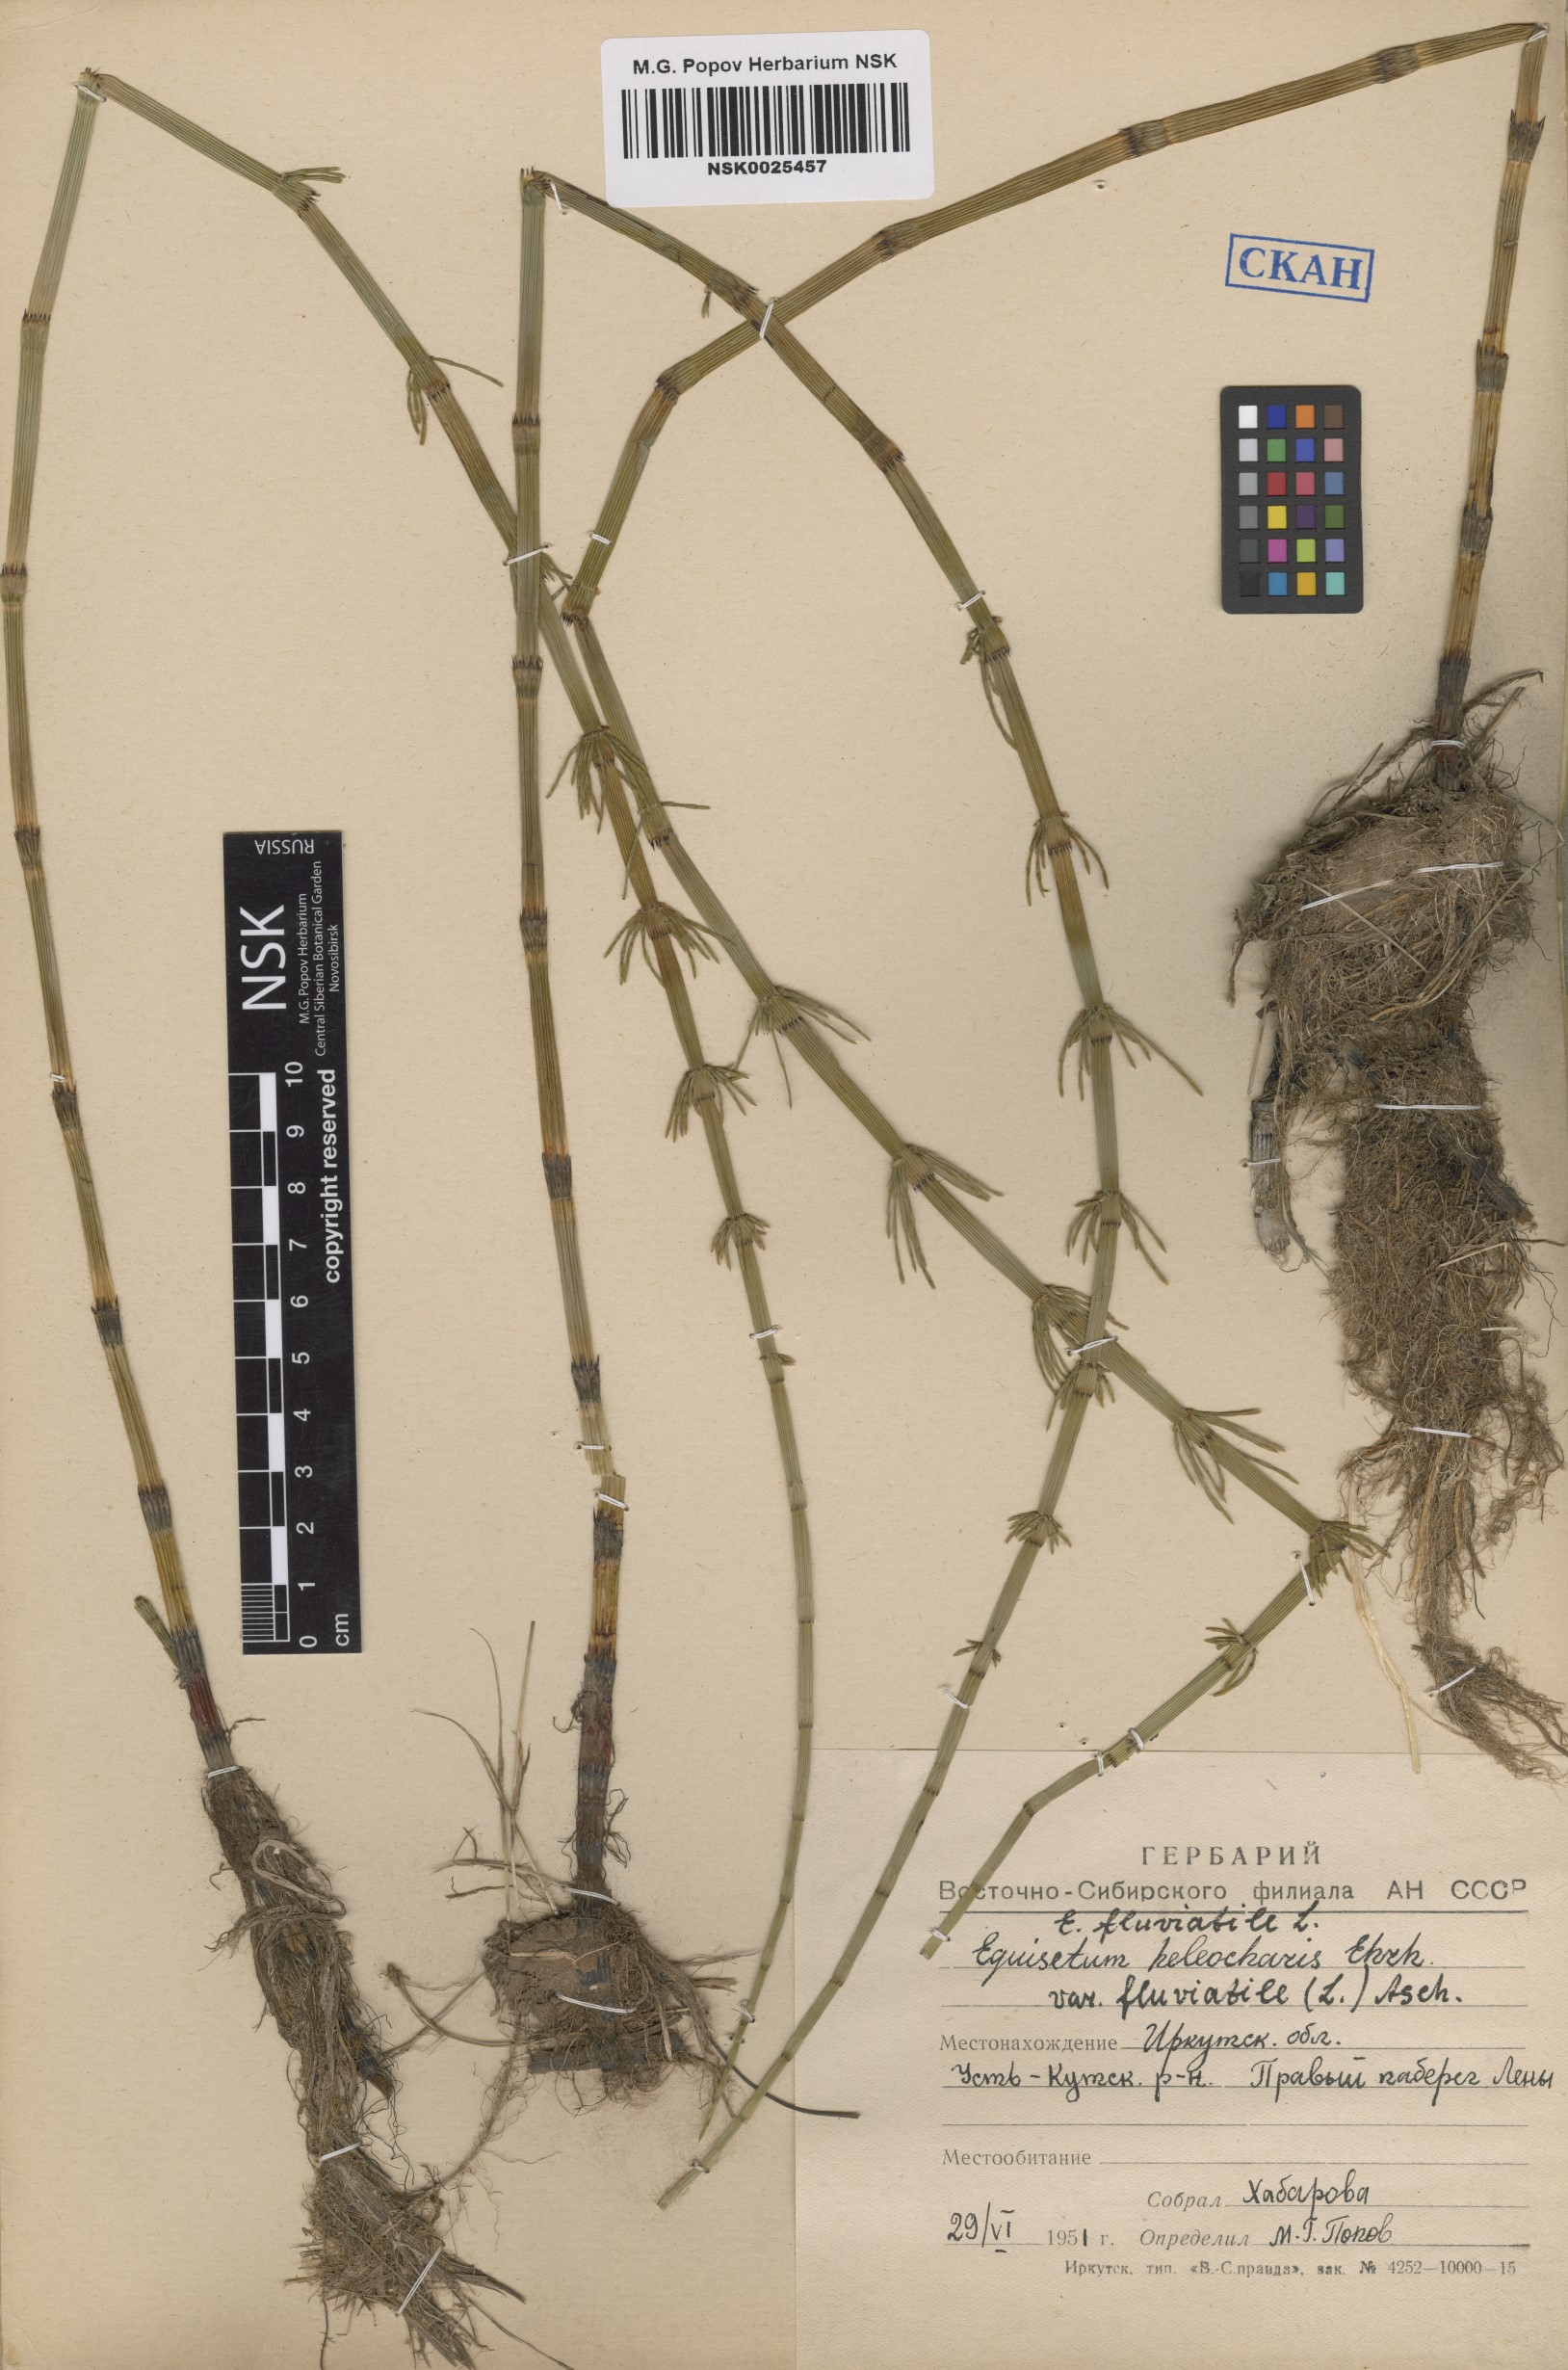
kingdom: Plantae
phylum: Tracheophyta
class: Polypodiopsida
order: Equisetales
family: Equisetaceae
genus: Equisetum
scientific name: Equisetum fluviatile
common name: Water horsetail
